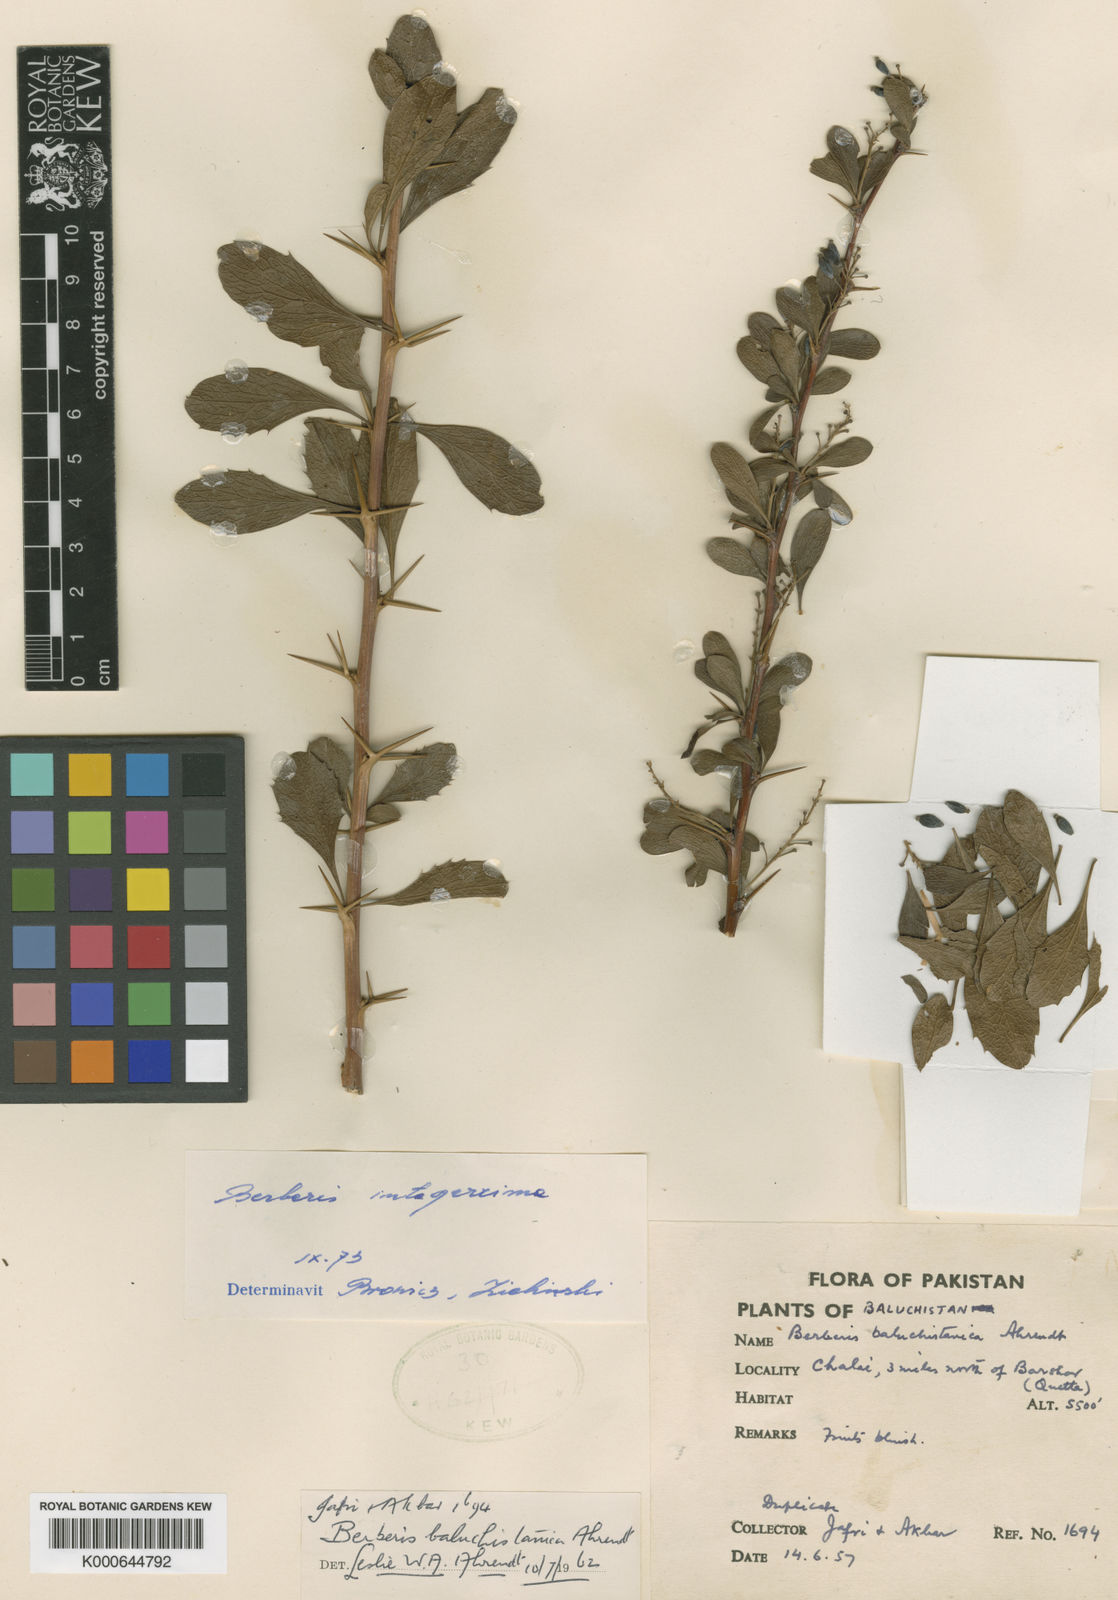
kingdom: Plantae
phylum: Tracheophyta
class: Magnoliopsida
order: Ranunculales
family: Berberidaceae
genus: Berberis
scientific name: Berberis integerrima
